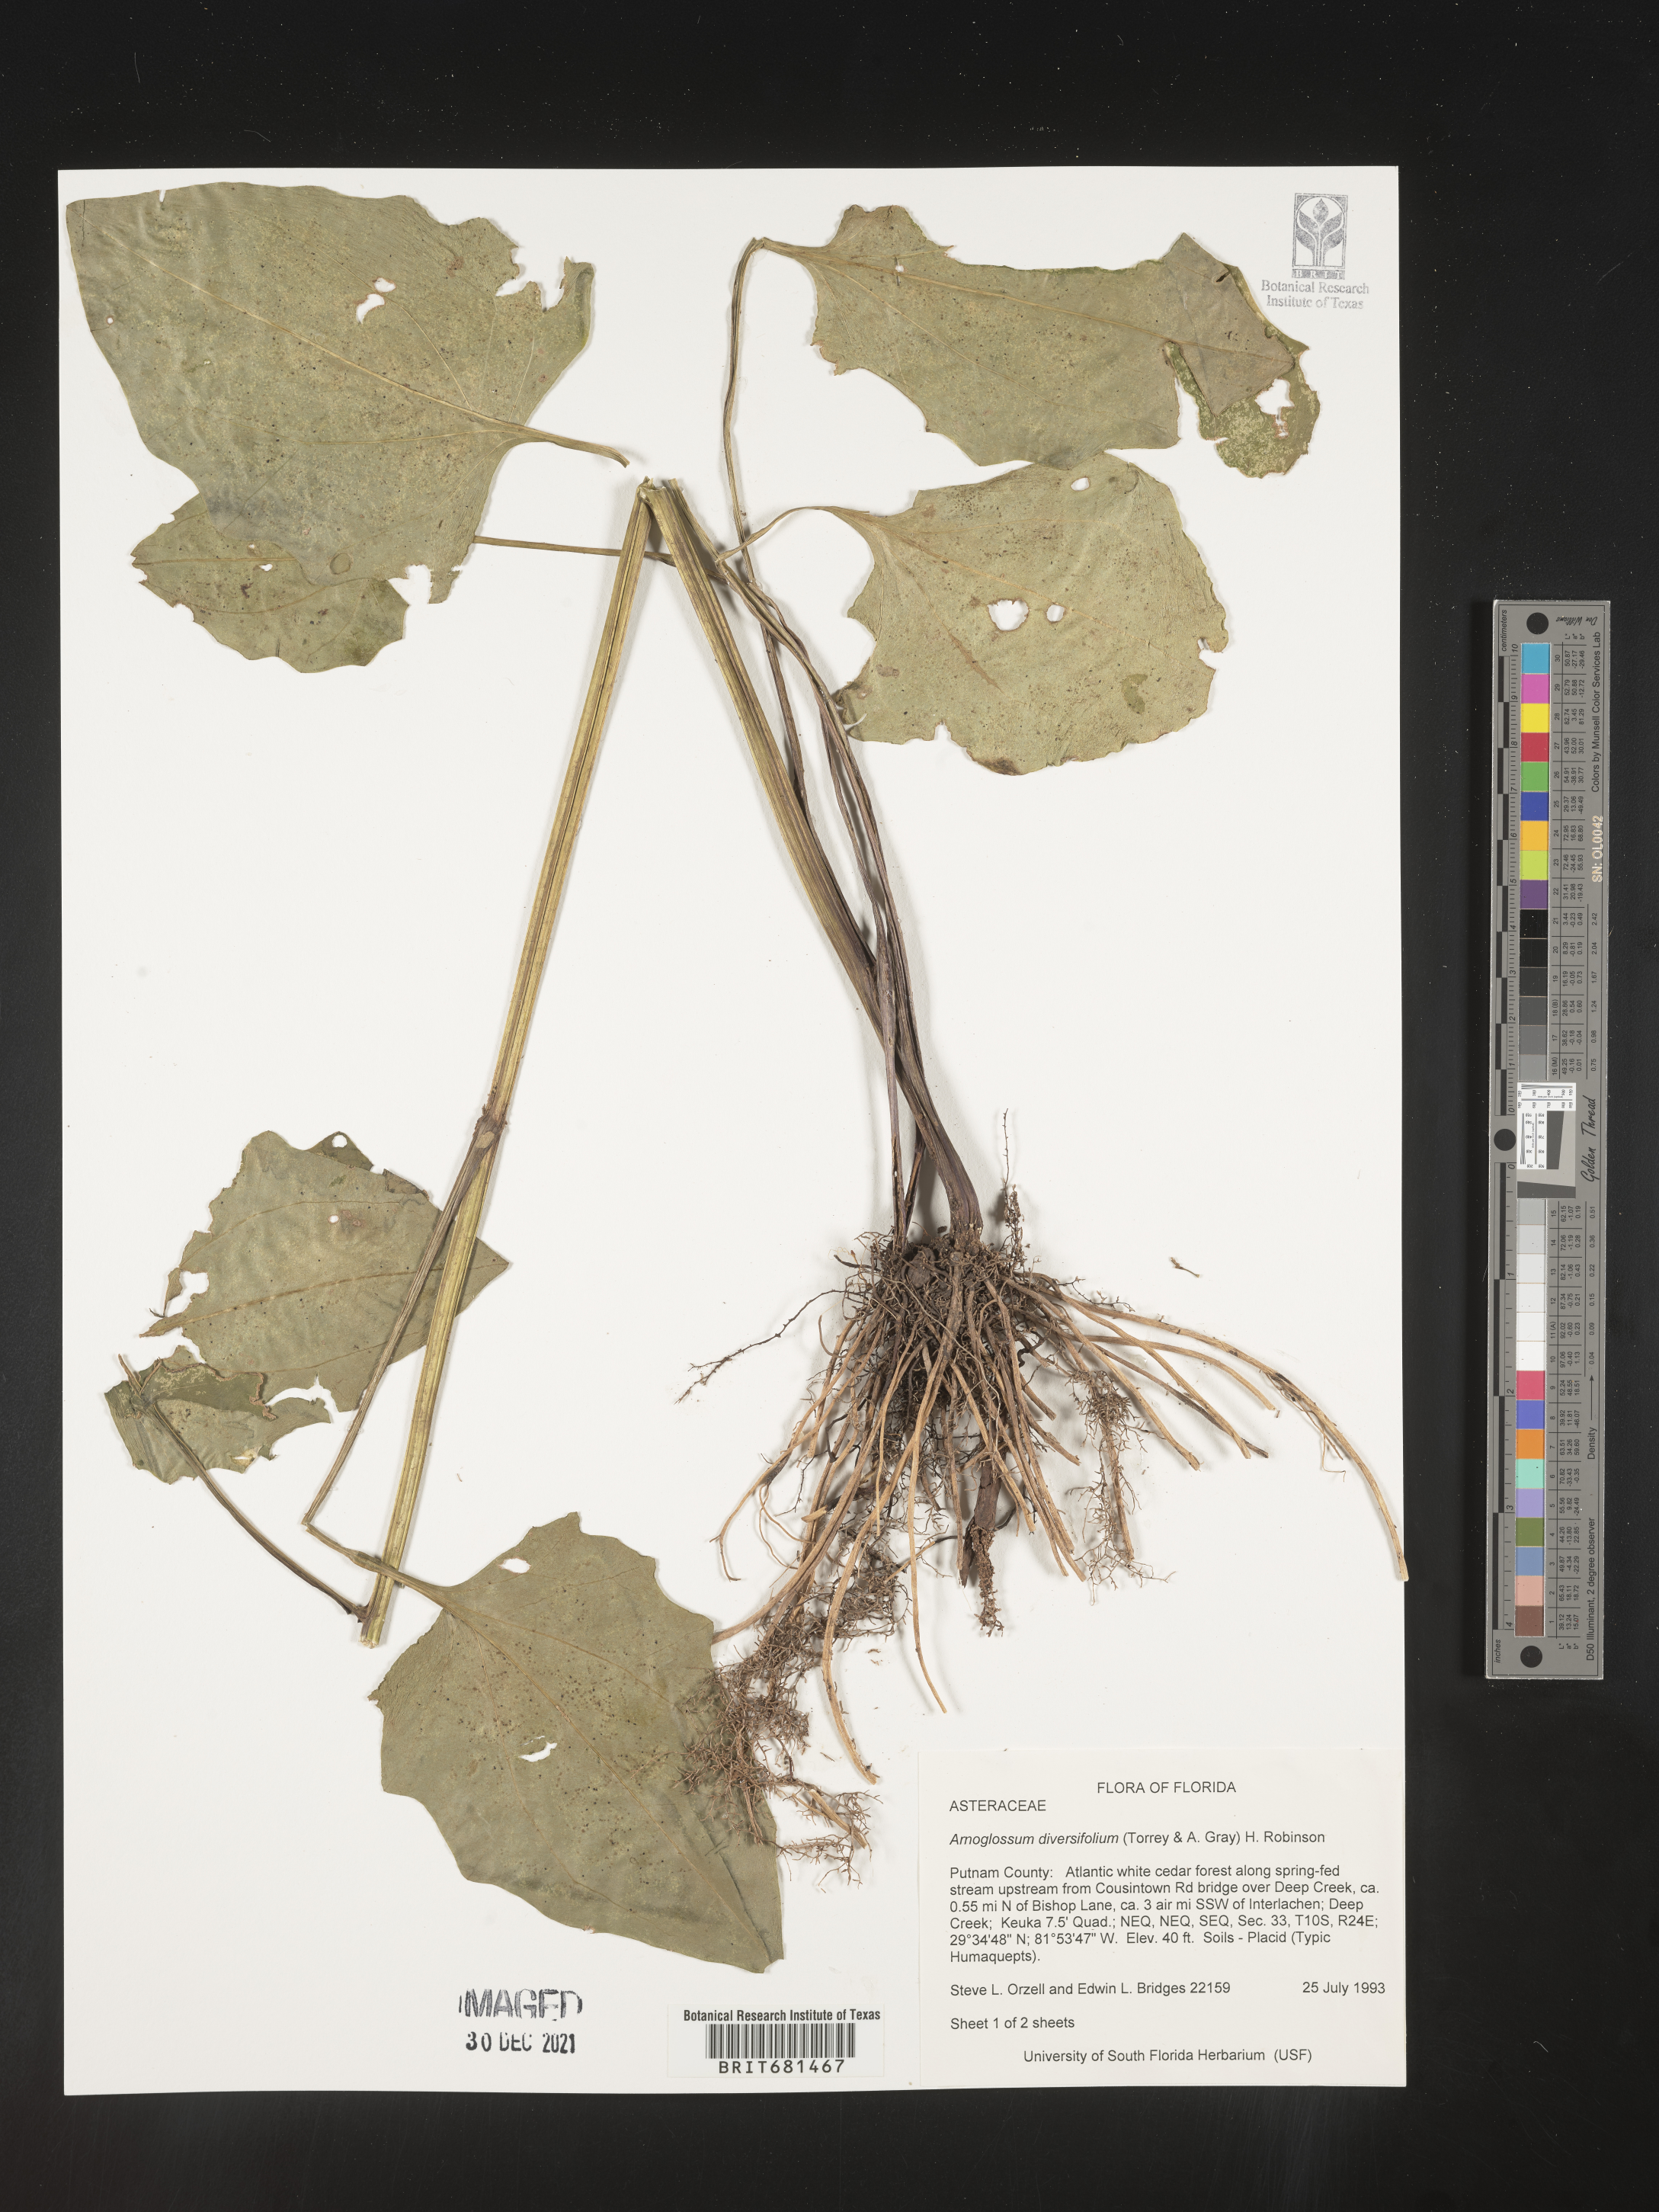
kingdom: Plantae
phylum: Tracheophyta
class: Magnoliopsida
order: Asterales
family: Asteraceae
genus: Arnoglossum
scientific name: Arnoglossum diversifolium
